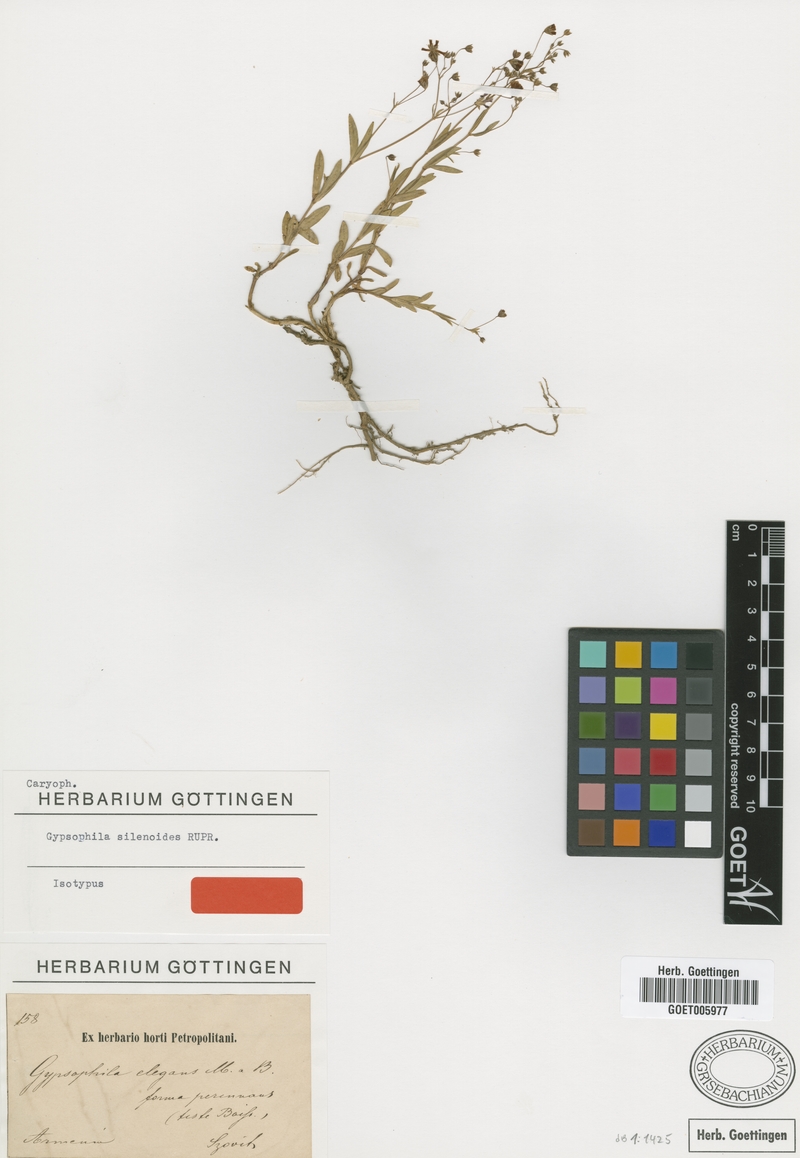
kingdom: Plantae
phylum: Tracheophyta
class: Magnoliopsida
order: Caryophyllales
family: Caryophyllaceae
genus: Gypsophila
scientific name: Gypsophila silenoides
